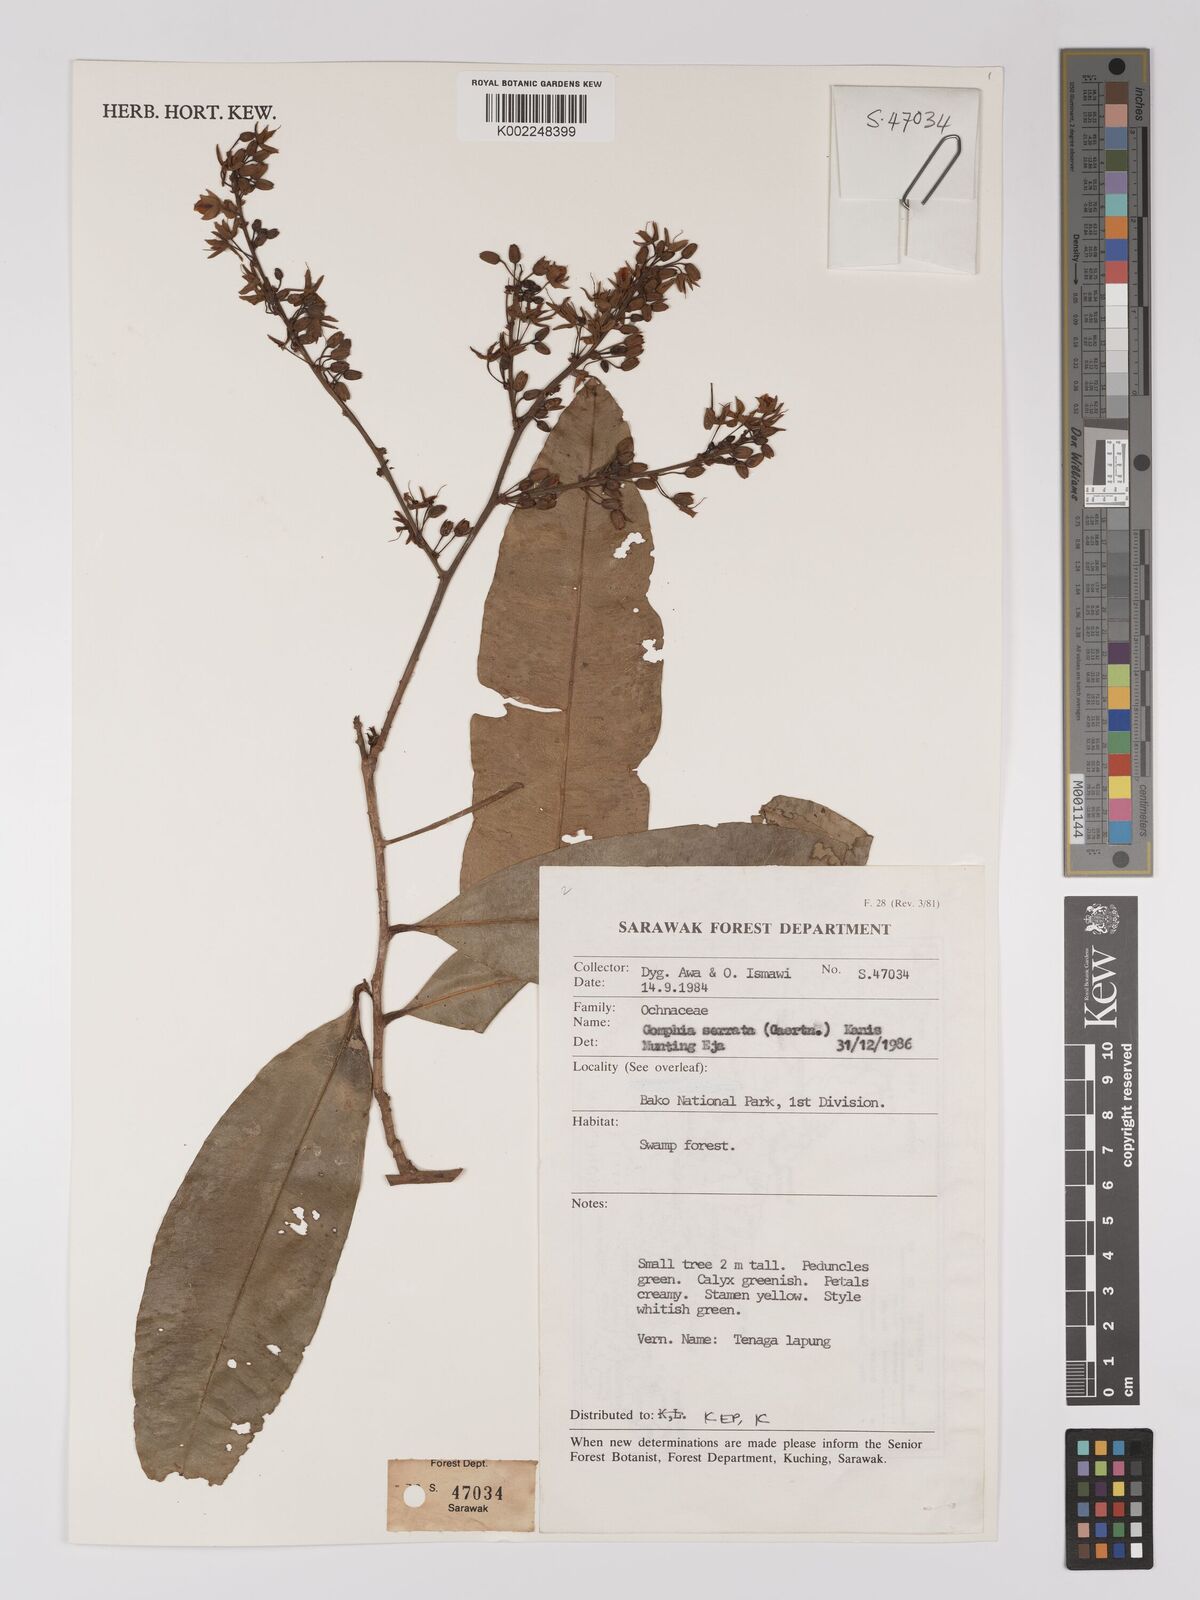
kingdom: Plantae
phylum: Tracheophyta
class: Magnoliopsida
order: Malpighiales
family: Ochnaceae
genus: Gomphia
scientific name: Gomphia serrata
